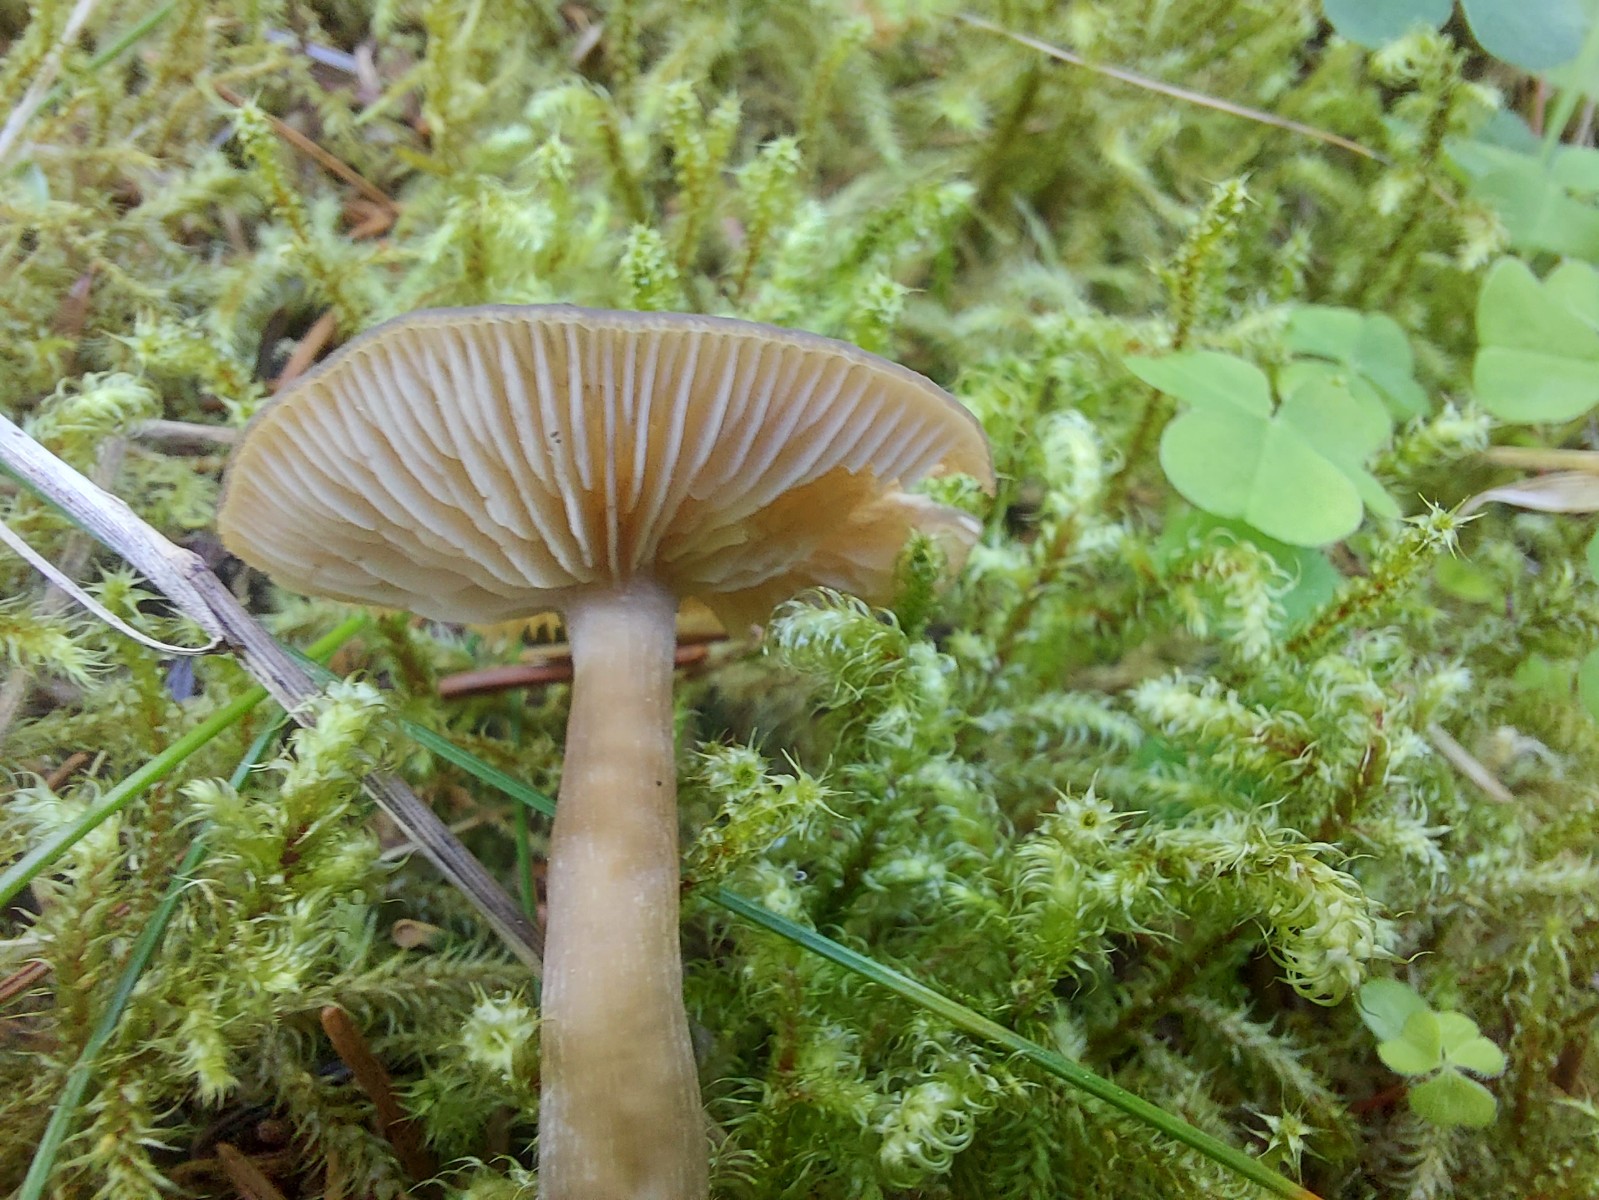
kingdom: Fungi
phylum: Basidiomycota
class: Agaricomycetes
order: Agaricales
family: Tricholomataceae
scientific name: Tricholomataceae
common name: ridderhatfamilien
